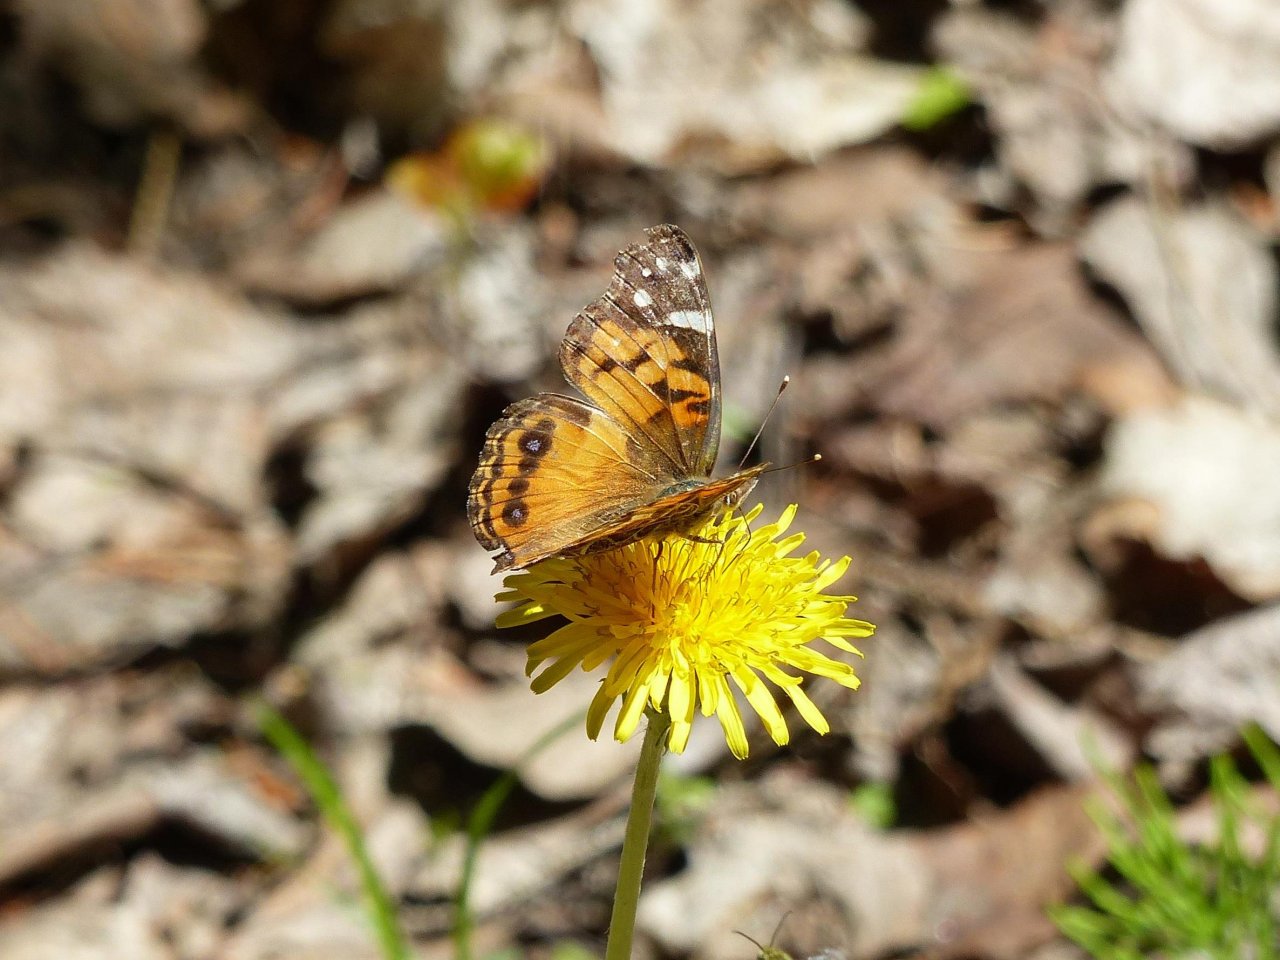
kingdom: Animalia
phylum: Arthropoda
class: Insecta
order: Lepidoptera
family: Nymphalidae
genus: Vanessa
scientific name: Vanessa virginiensis
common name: American Lady
